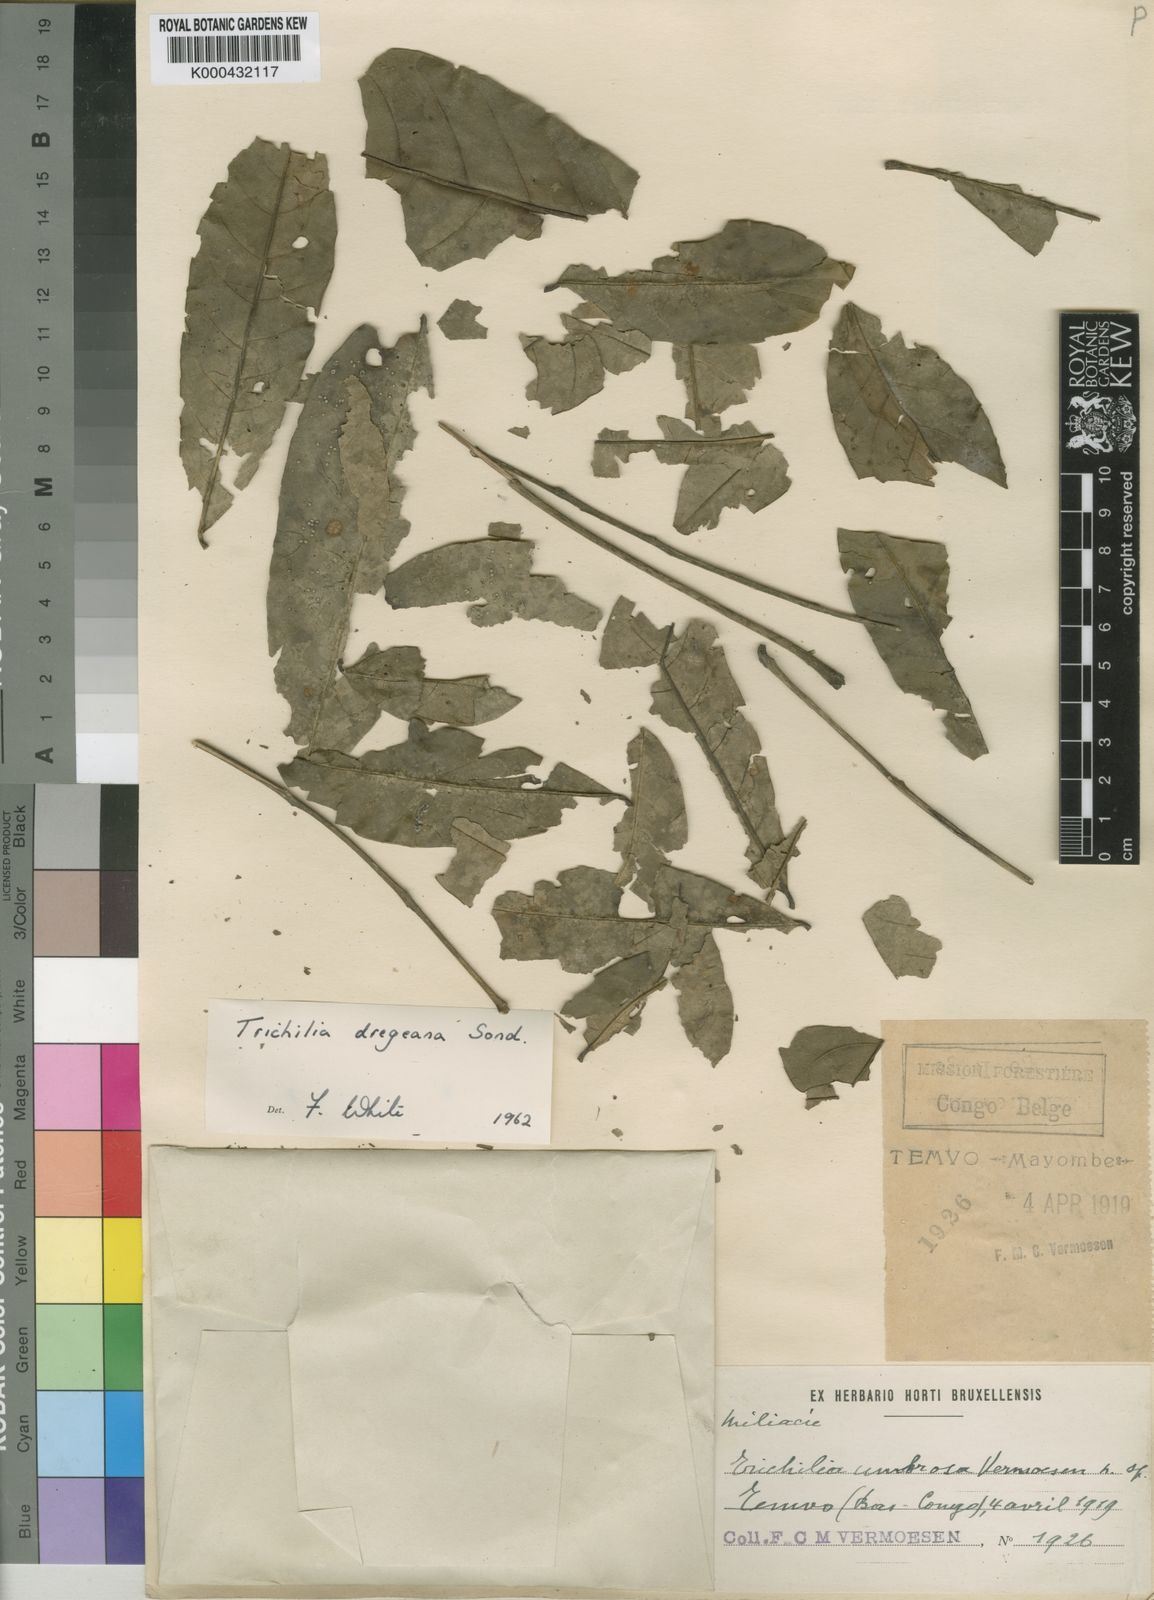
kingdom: Plantae
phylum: Tracheophyta
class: Magnoliopsida
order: Sapindales
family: Meliaceae
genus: Trichilia
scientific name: Trichilia dregeana
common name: Christmas-bells
